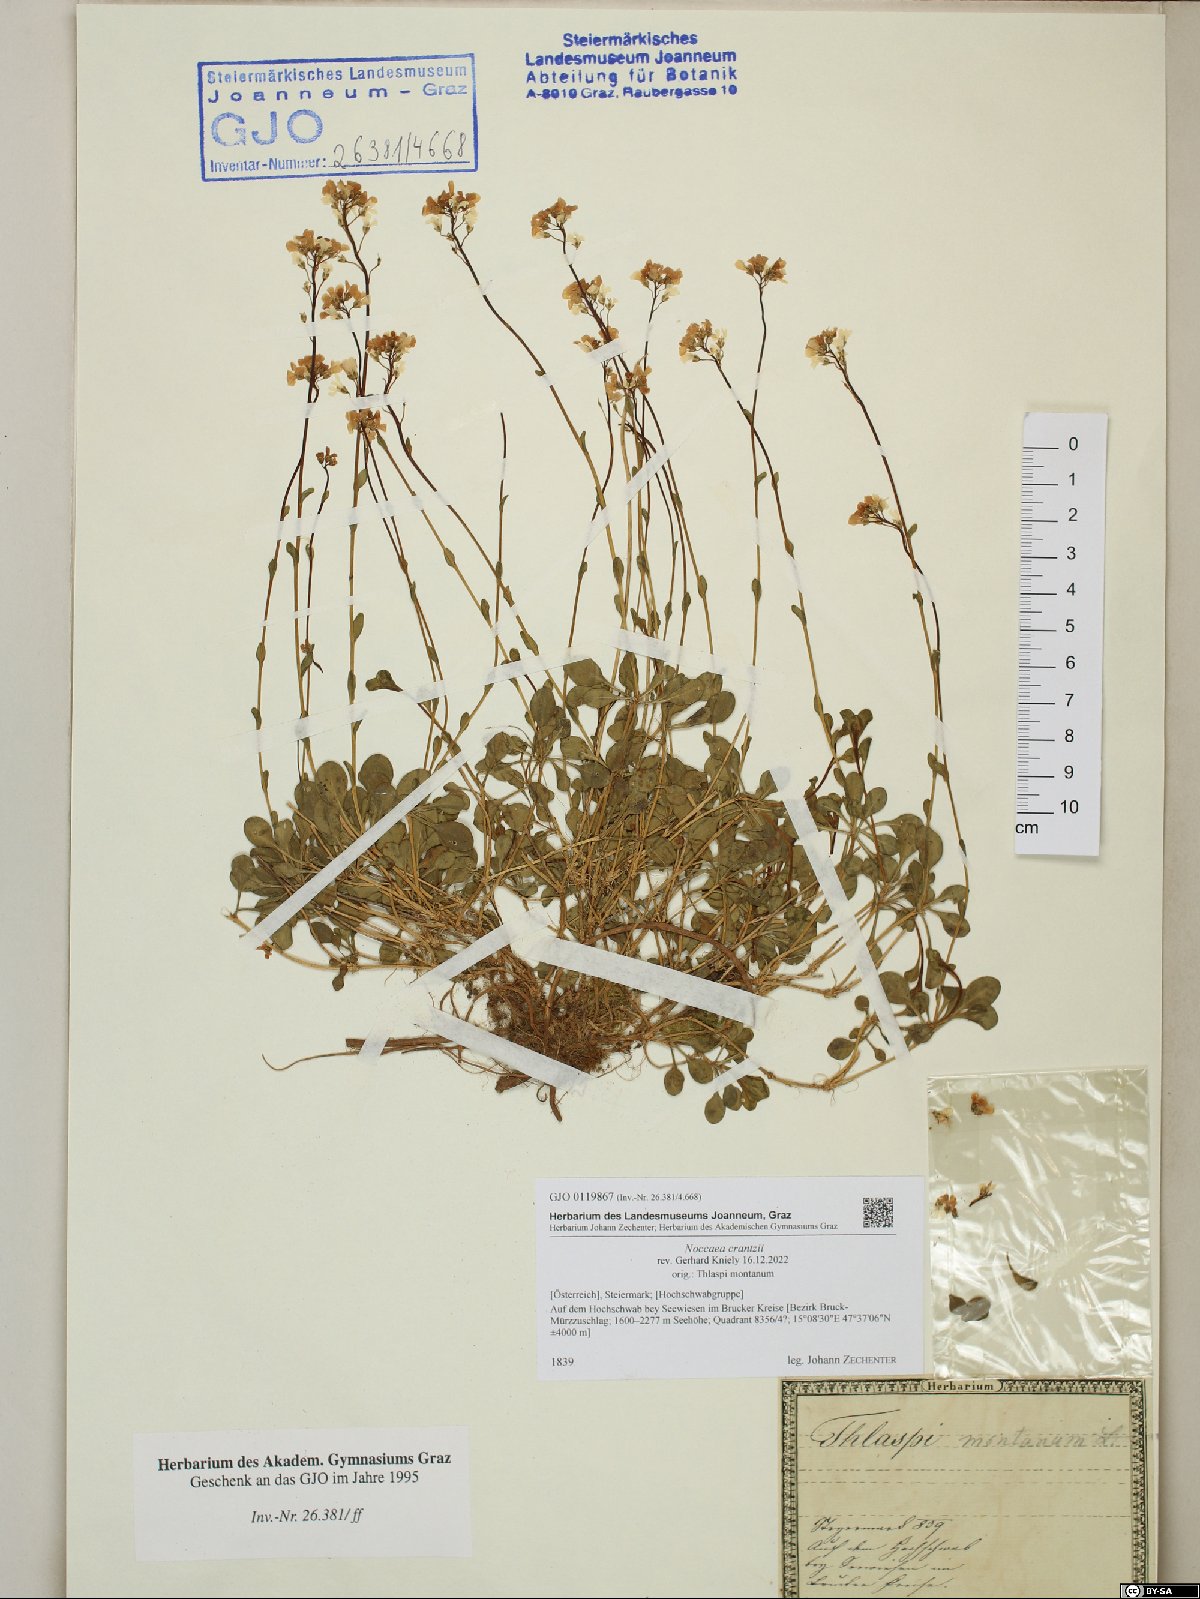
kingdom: Plantae
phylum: Tracheophyta
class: Magnoliopsida
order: Brassicales
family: Brassicaceae
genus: Noccaea
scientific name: Noccaea alpestris
